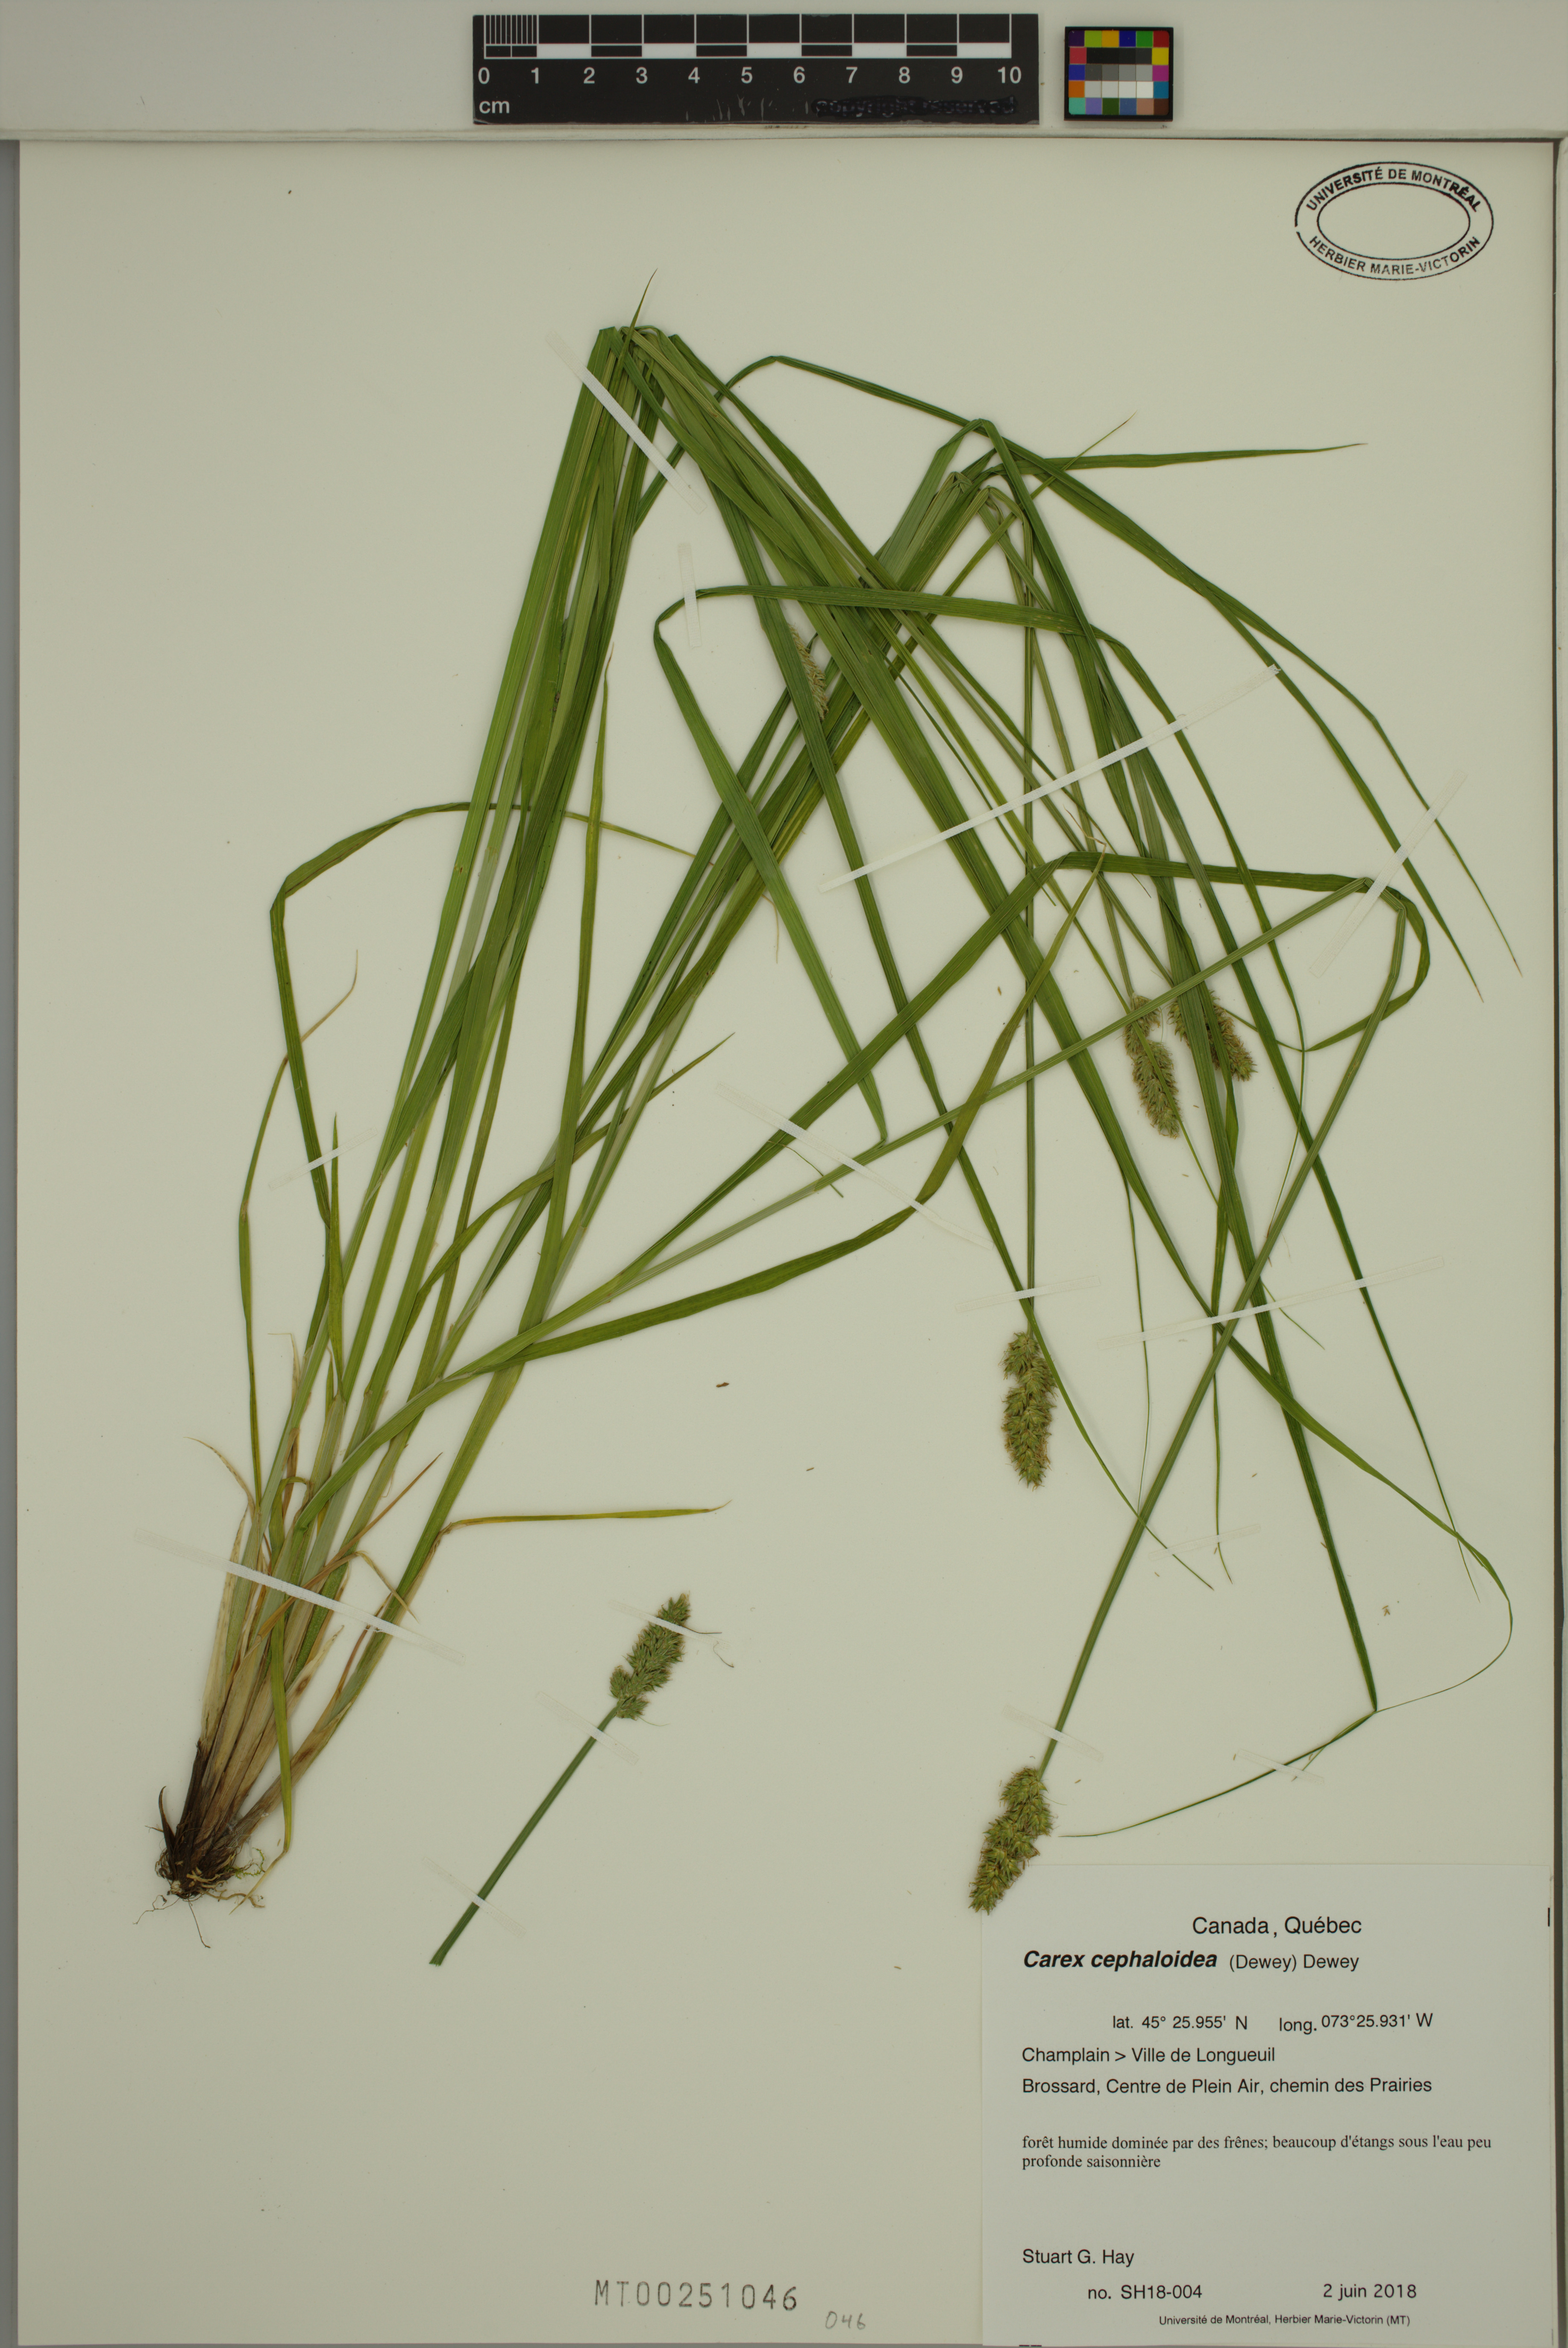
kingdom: Plantae
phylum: Tracheophyta
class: Liliopsida
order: Poales
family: Cyperaceae
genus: Carex
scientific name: Carex cephaloidea
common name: Thin-leaved sedge
